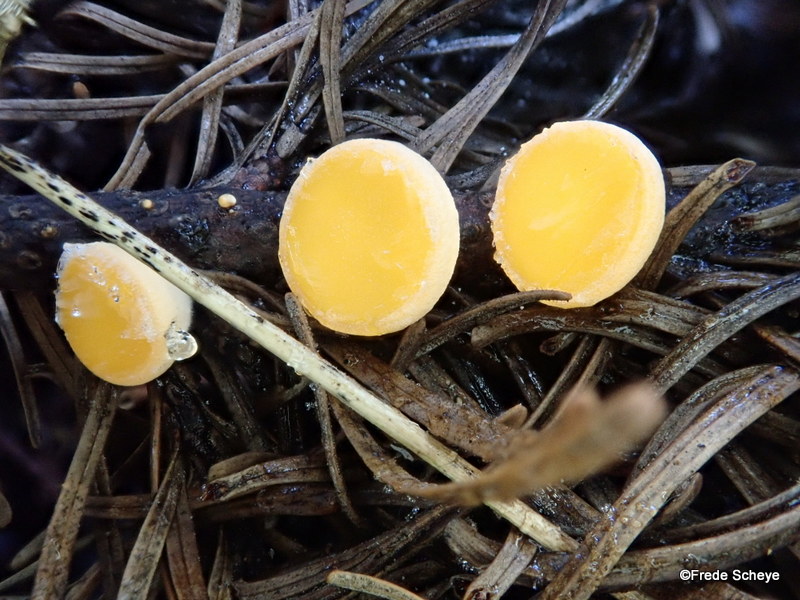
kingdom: Fungi
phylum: Ascomycota
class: Pezizomycetes
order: Pezizales
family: Sarcoscyphaceae
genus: Pithya
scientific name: Pithya vulgaris
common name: stor dukatbæger
